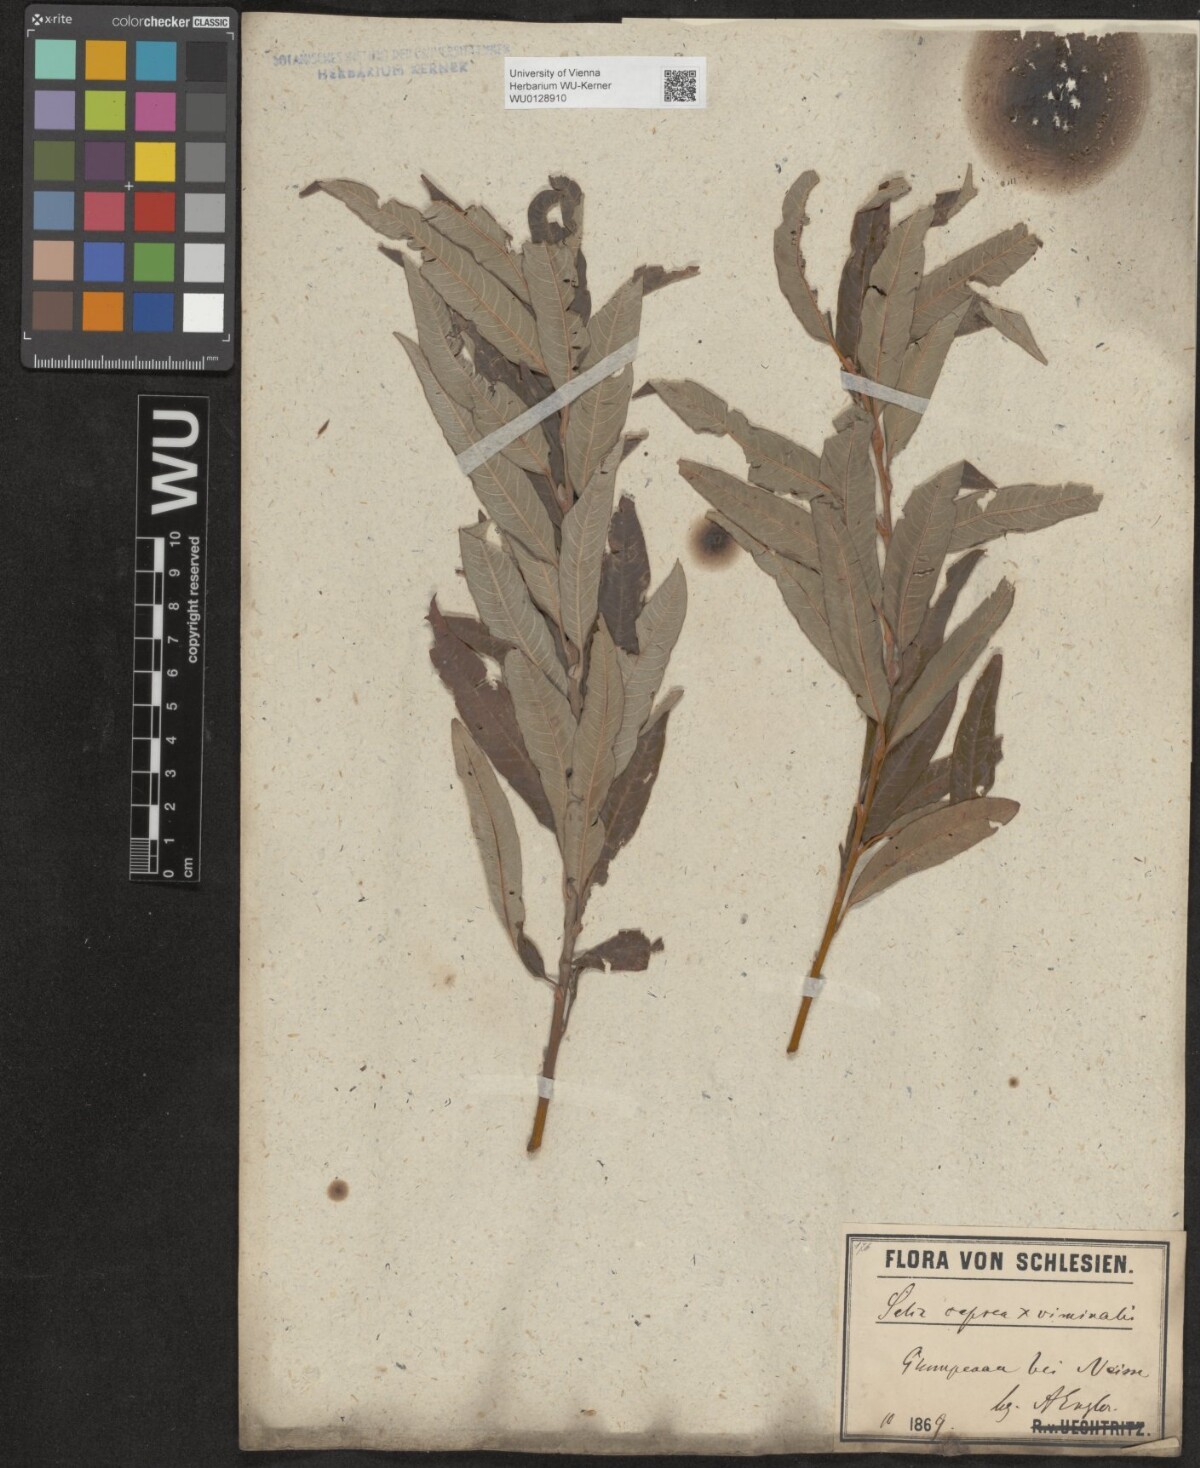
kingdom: Plantae
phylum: Tracheophyta
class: Magnoliopsida
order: Malpighiales
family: Salicaceae
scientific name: Salicaceae
